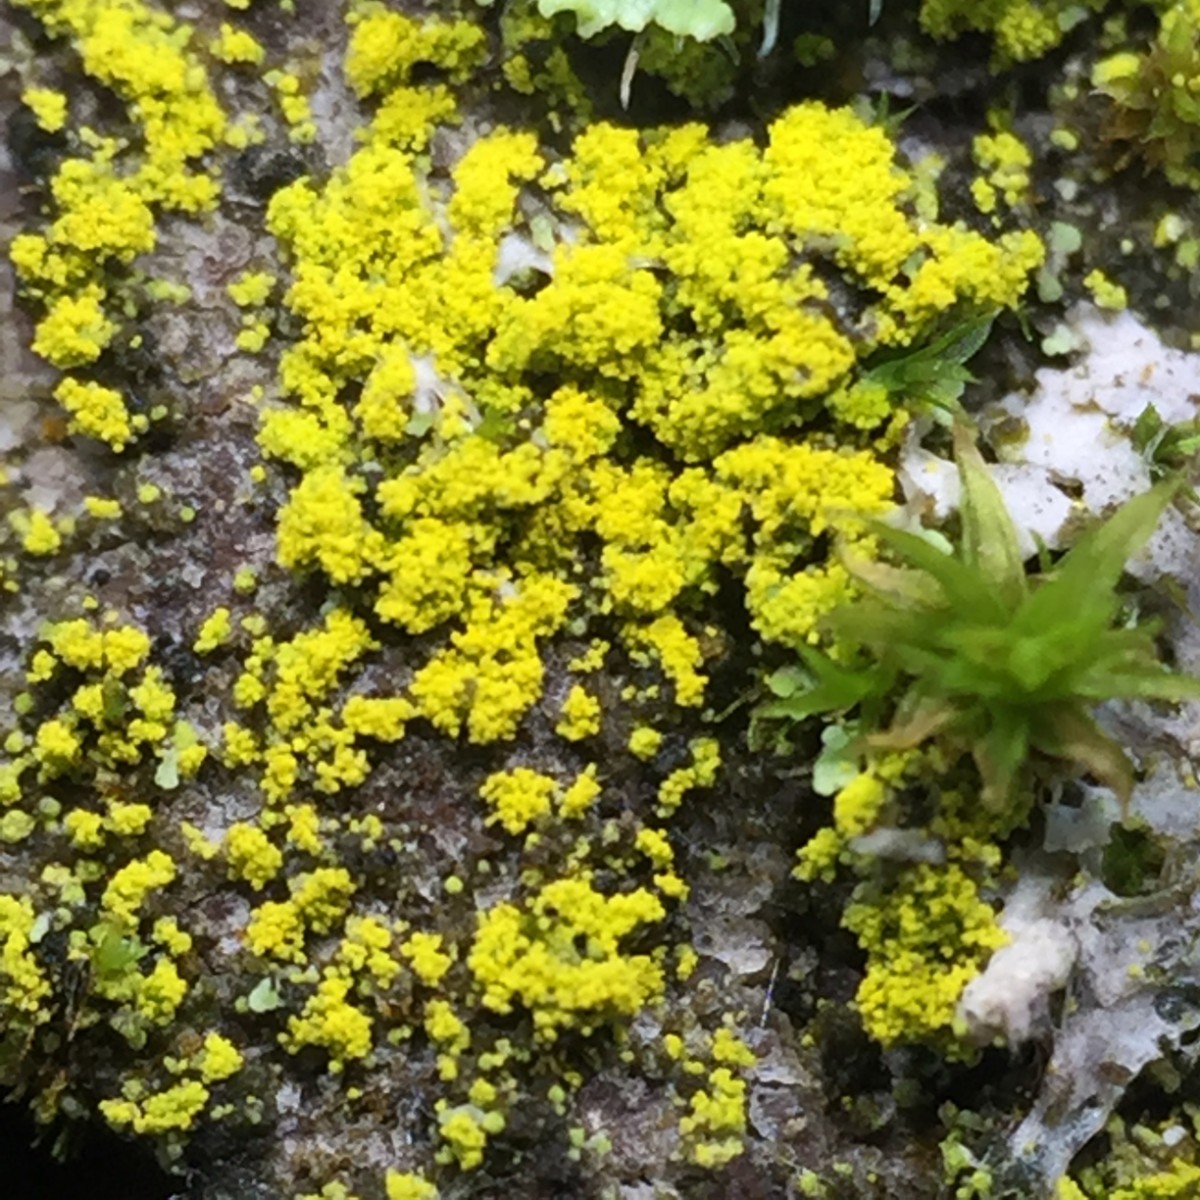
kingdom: Fungi
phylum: Ascomycota
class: Candelariomycetes
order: Candelariales
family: Candelariaceae
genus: Candelariella
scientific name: Candelariella reflexa
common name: grynskællet æggeblommelav
